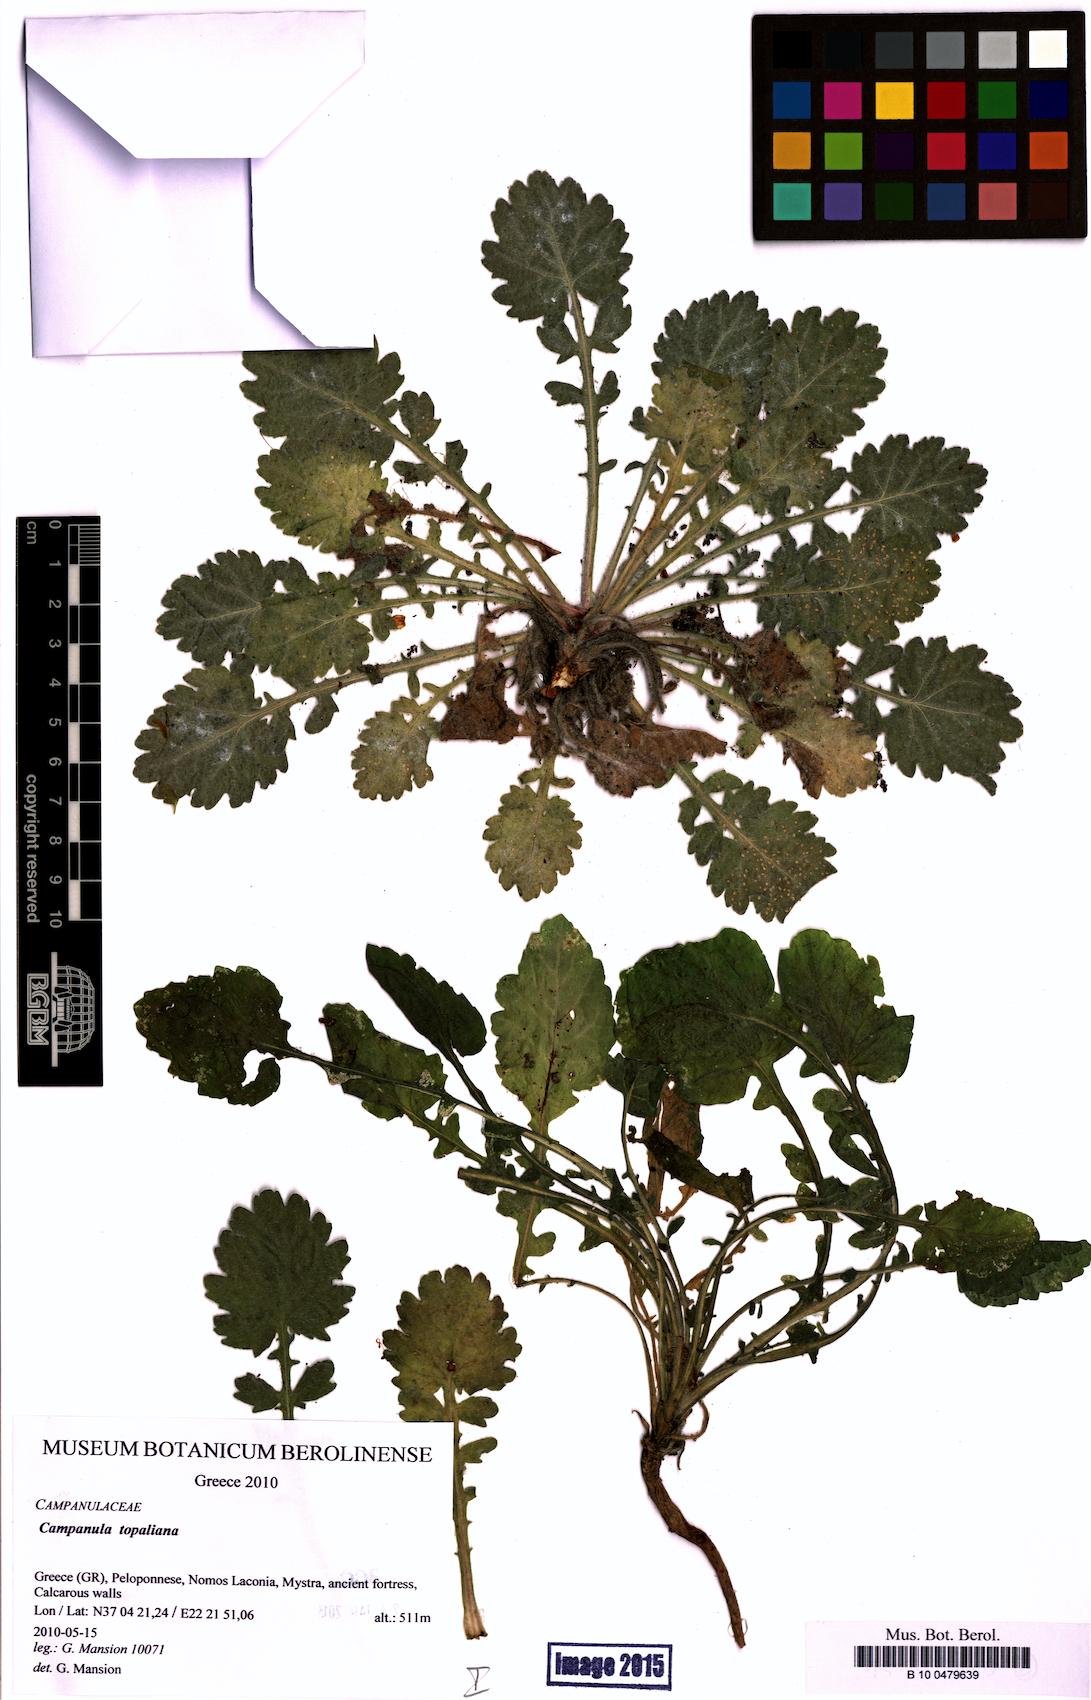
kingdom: Plantae
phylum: Tracheophyta
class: Magnoliopsida
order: Asterales
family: Campanulaceae
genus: Campanula
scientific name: Campanula topaliana
